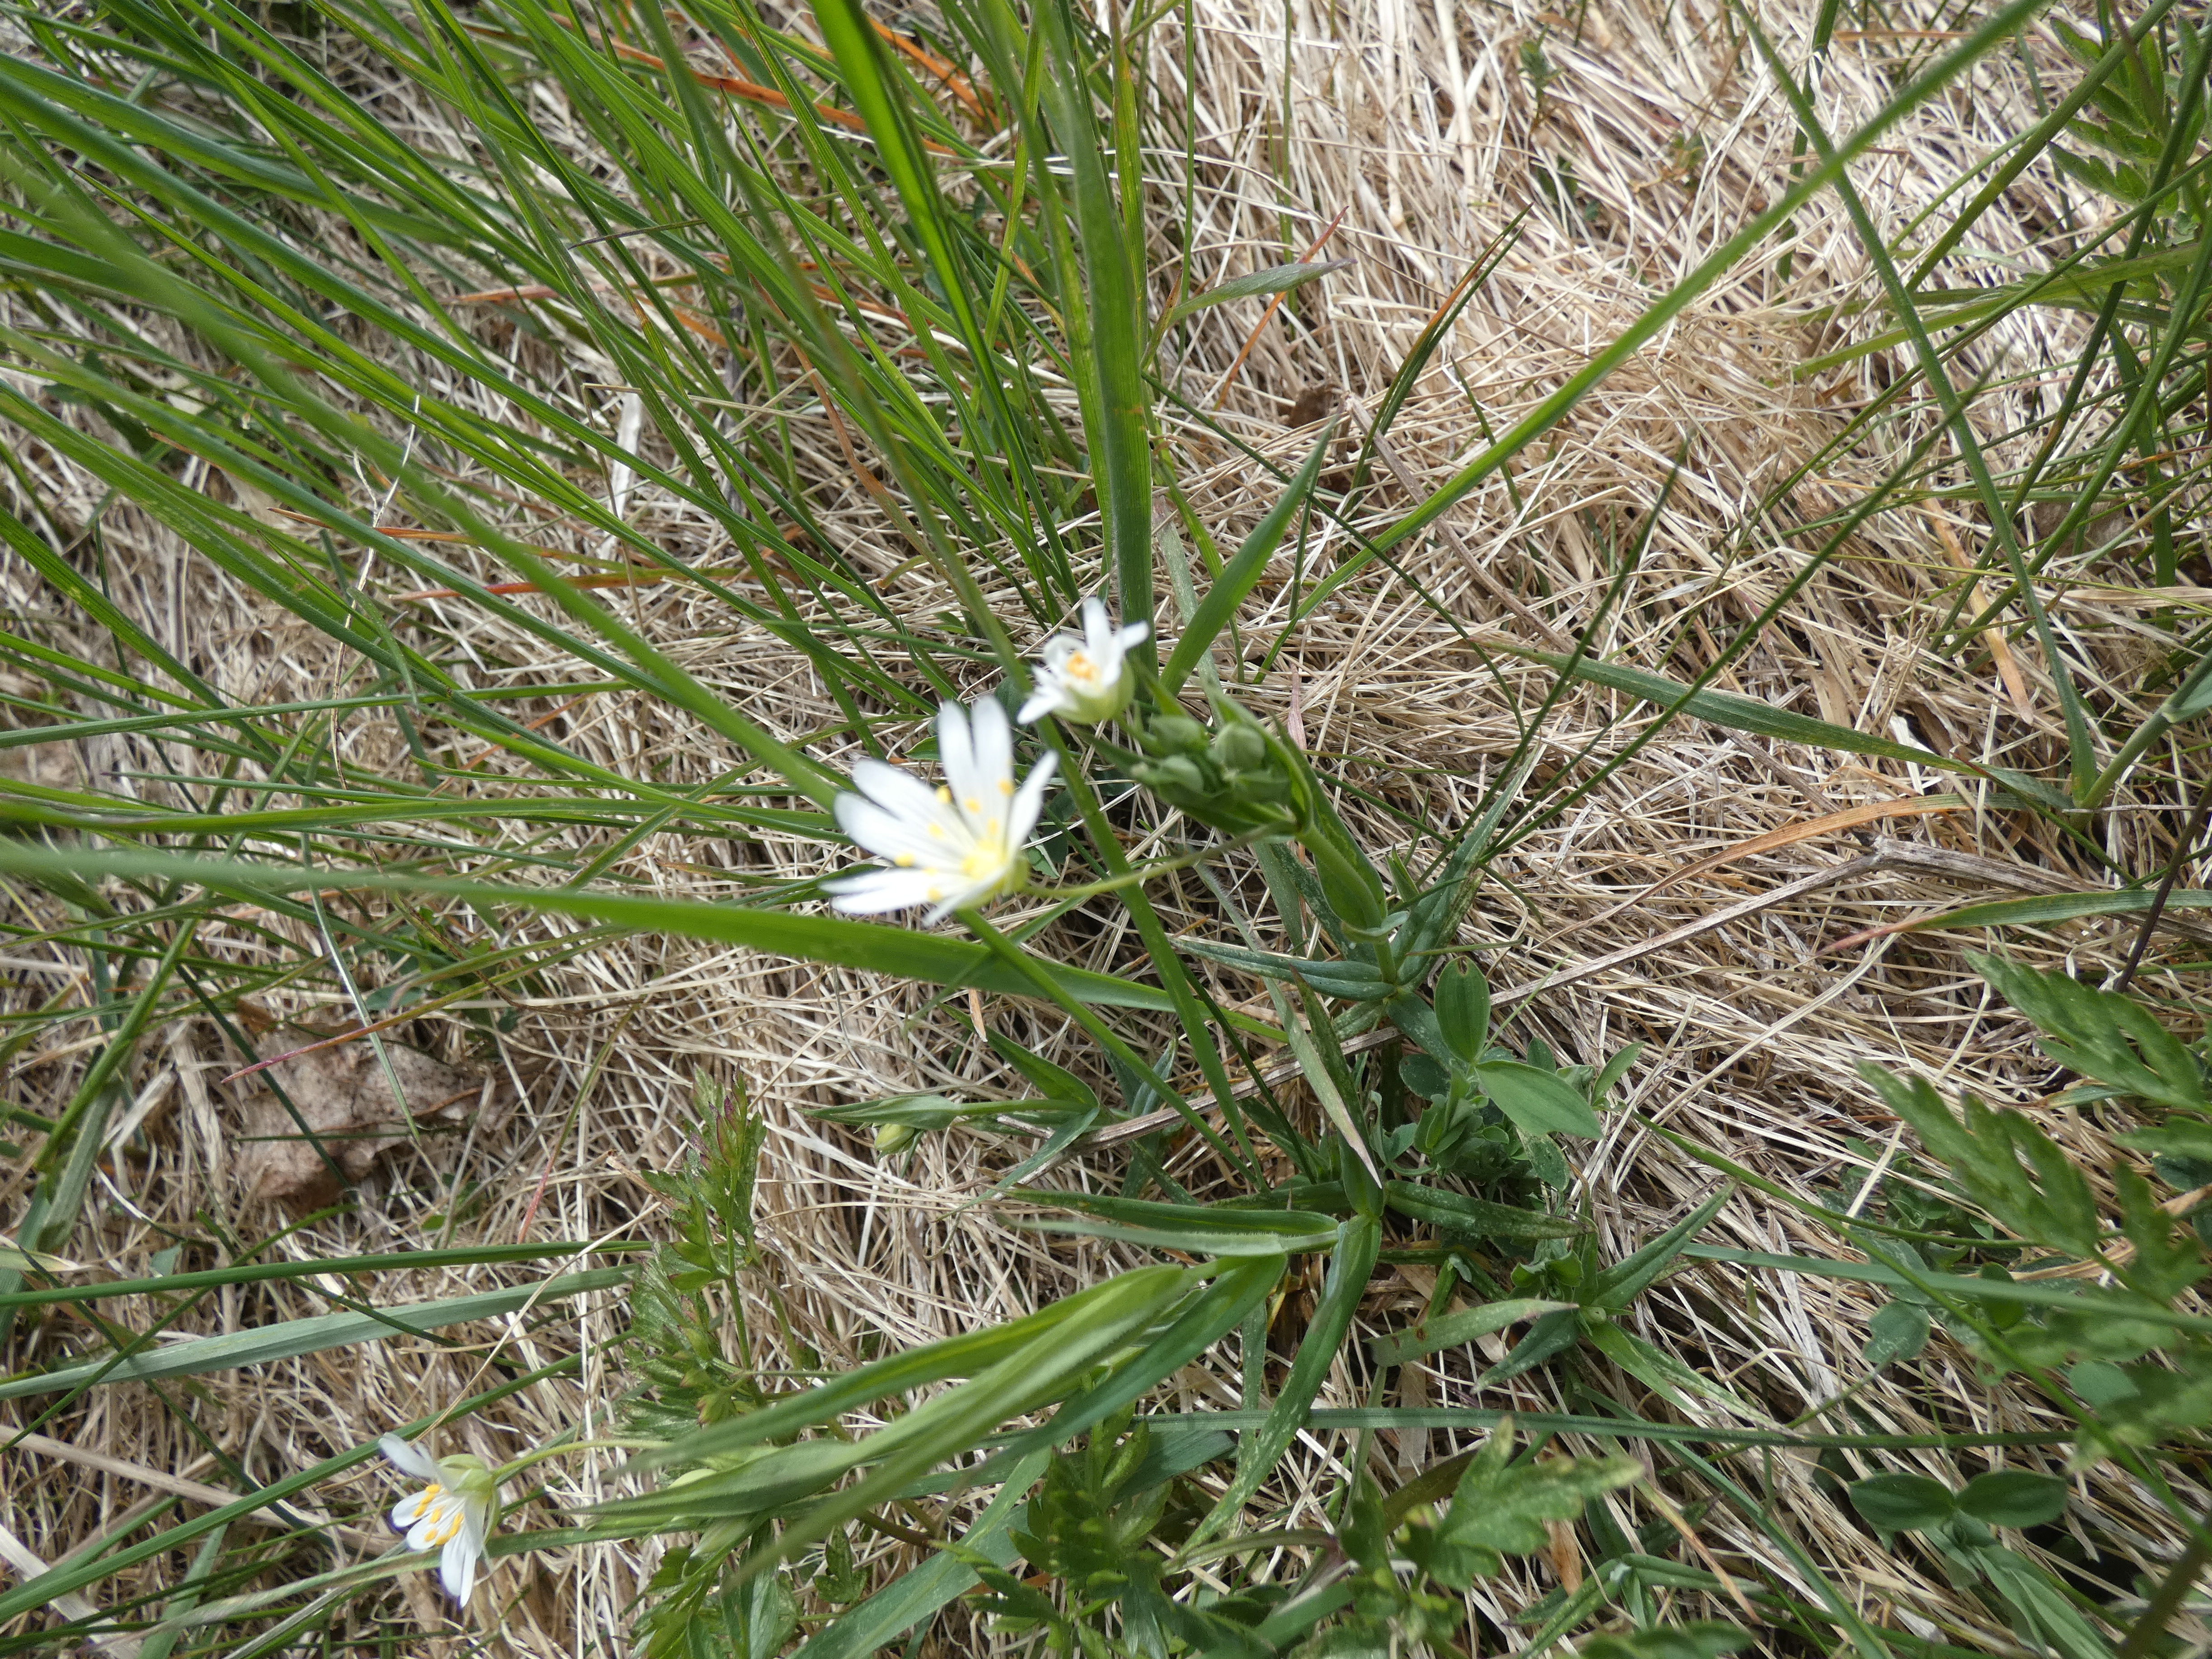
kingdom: Plantae
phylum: Tracheophyta
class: Magnoliopsida
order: Caryophyllales
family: Caryophyllaceae
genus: Rabelera
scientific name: Rabelera holostea
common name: Stor fladstjerne
